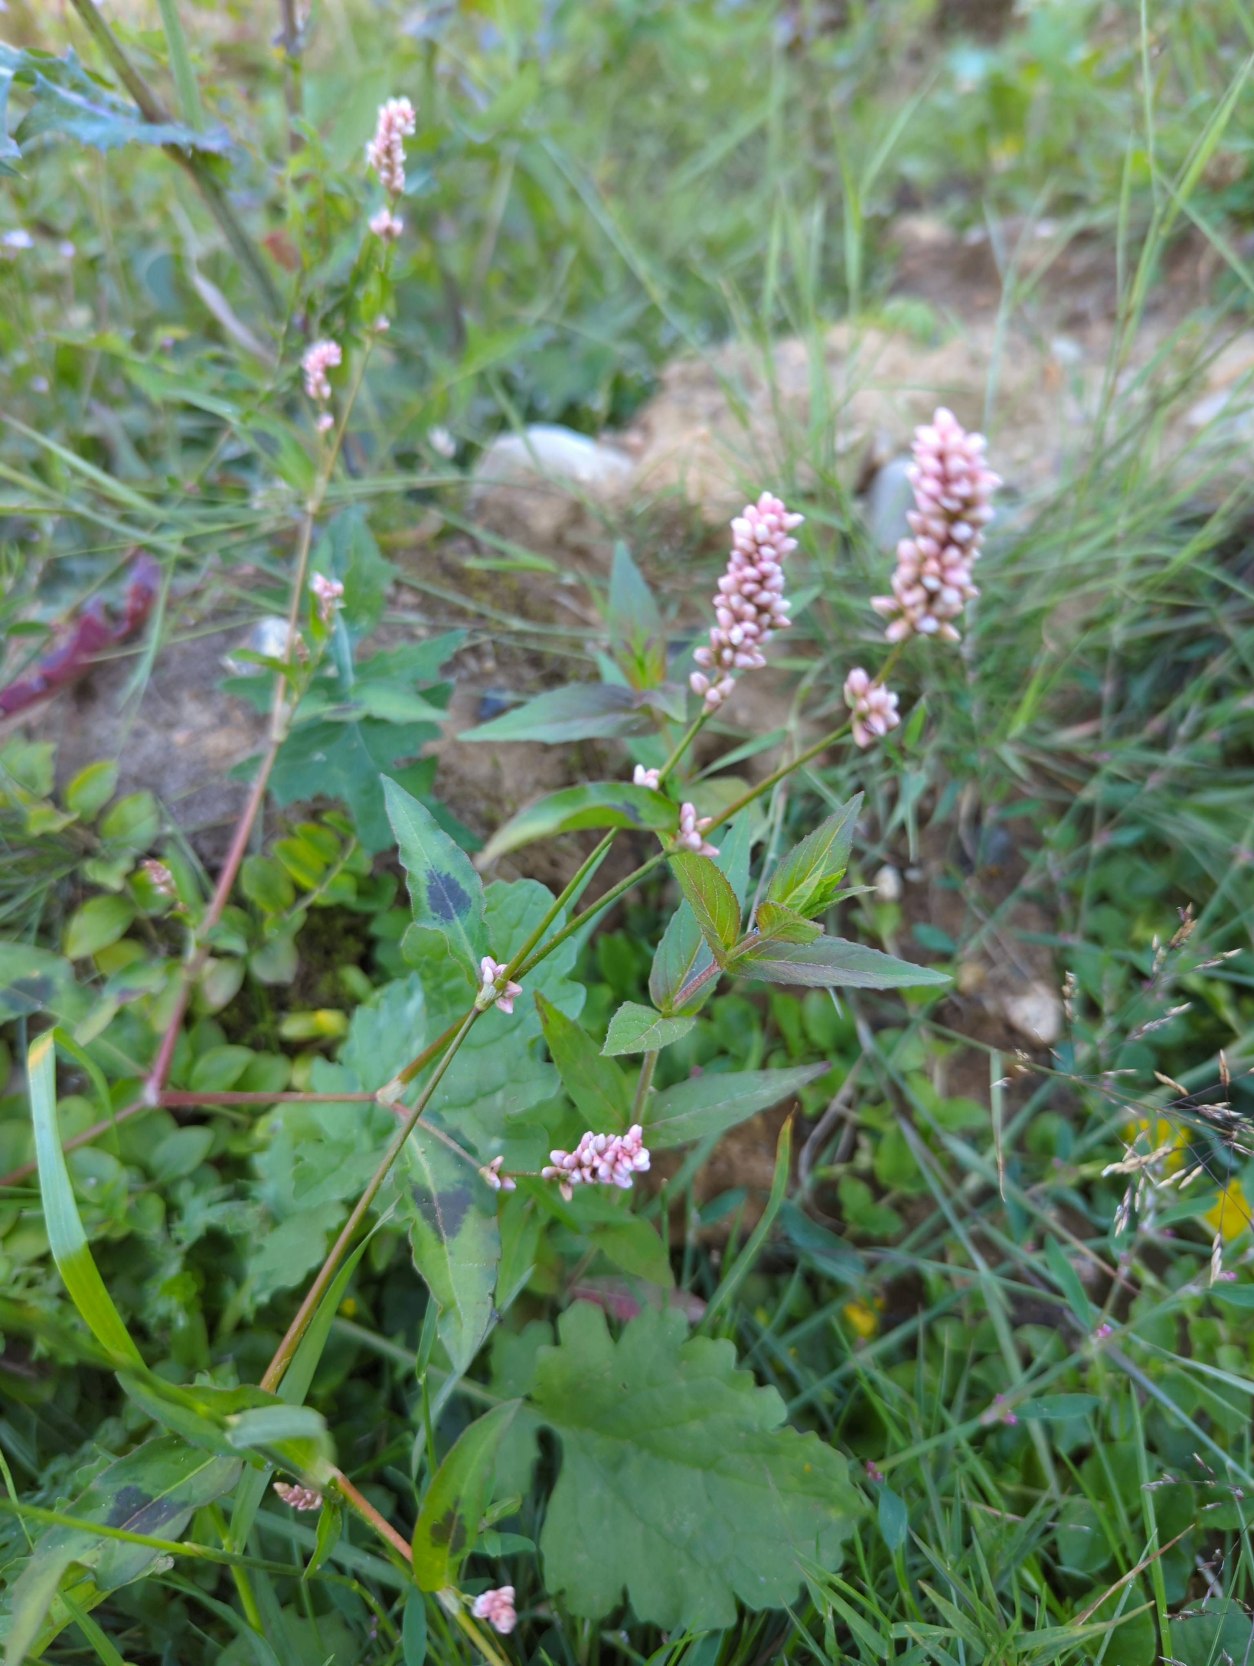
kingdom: Plantae
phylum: Tracheophyta
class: Magnoliopsida
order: Caryophyllales
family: Polygonaceae
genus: Persicaria
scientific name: Persicaria maculosa
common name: Fersken-pileurt
